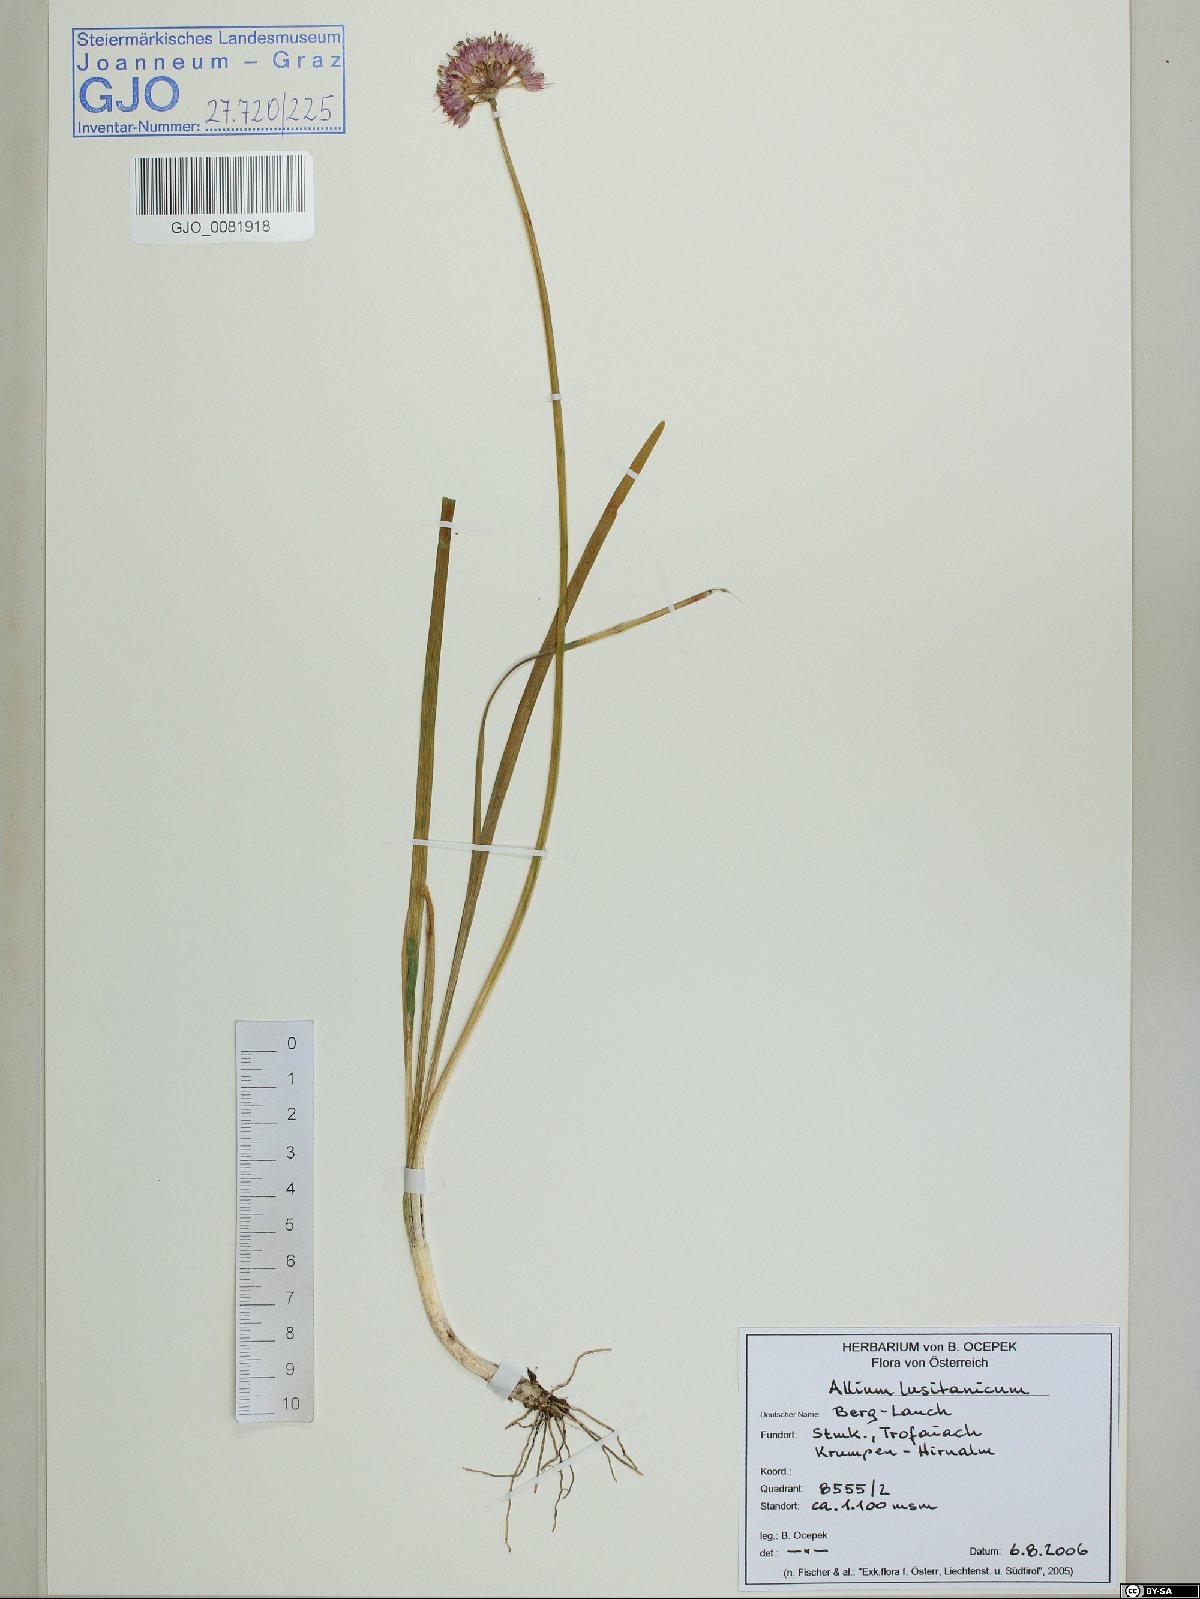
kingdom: Plantae
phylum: Tracheophyta
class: Liliopsida
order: Asparagales
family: Amaryllidaceae
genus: Allium
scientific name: Allium lusitanicum
